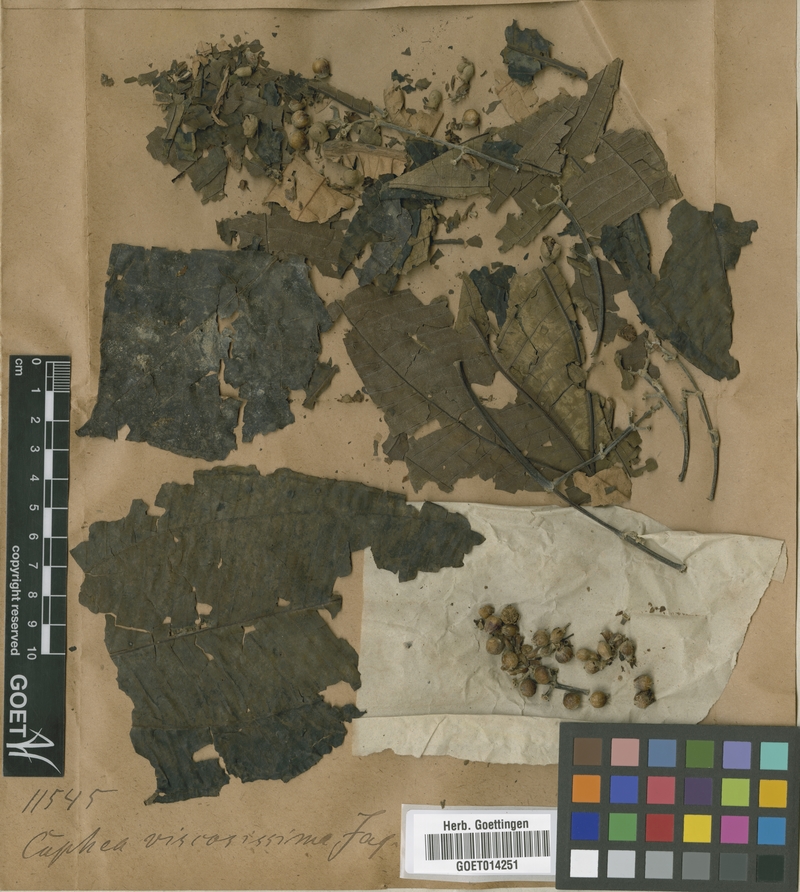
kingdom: Plantae
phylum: Tracheophyta
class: Magnoliopsida
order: Myrtales
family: Melastomataceae
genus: Miconia
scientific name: Miconia plukenetii
